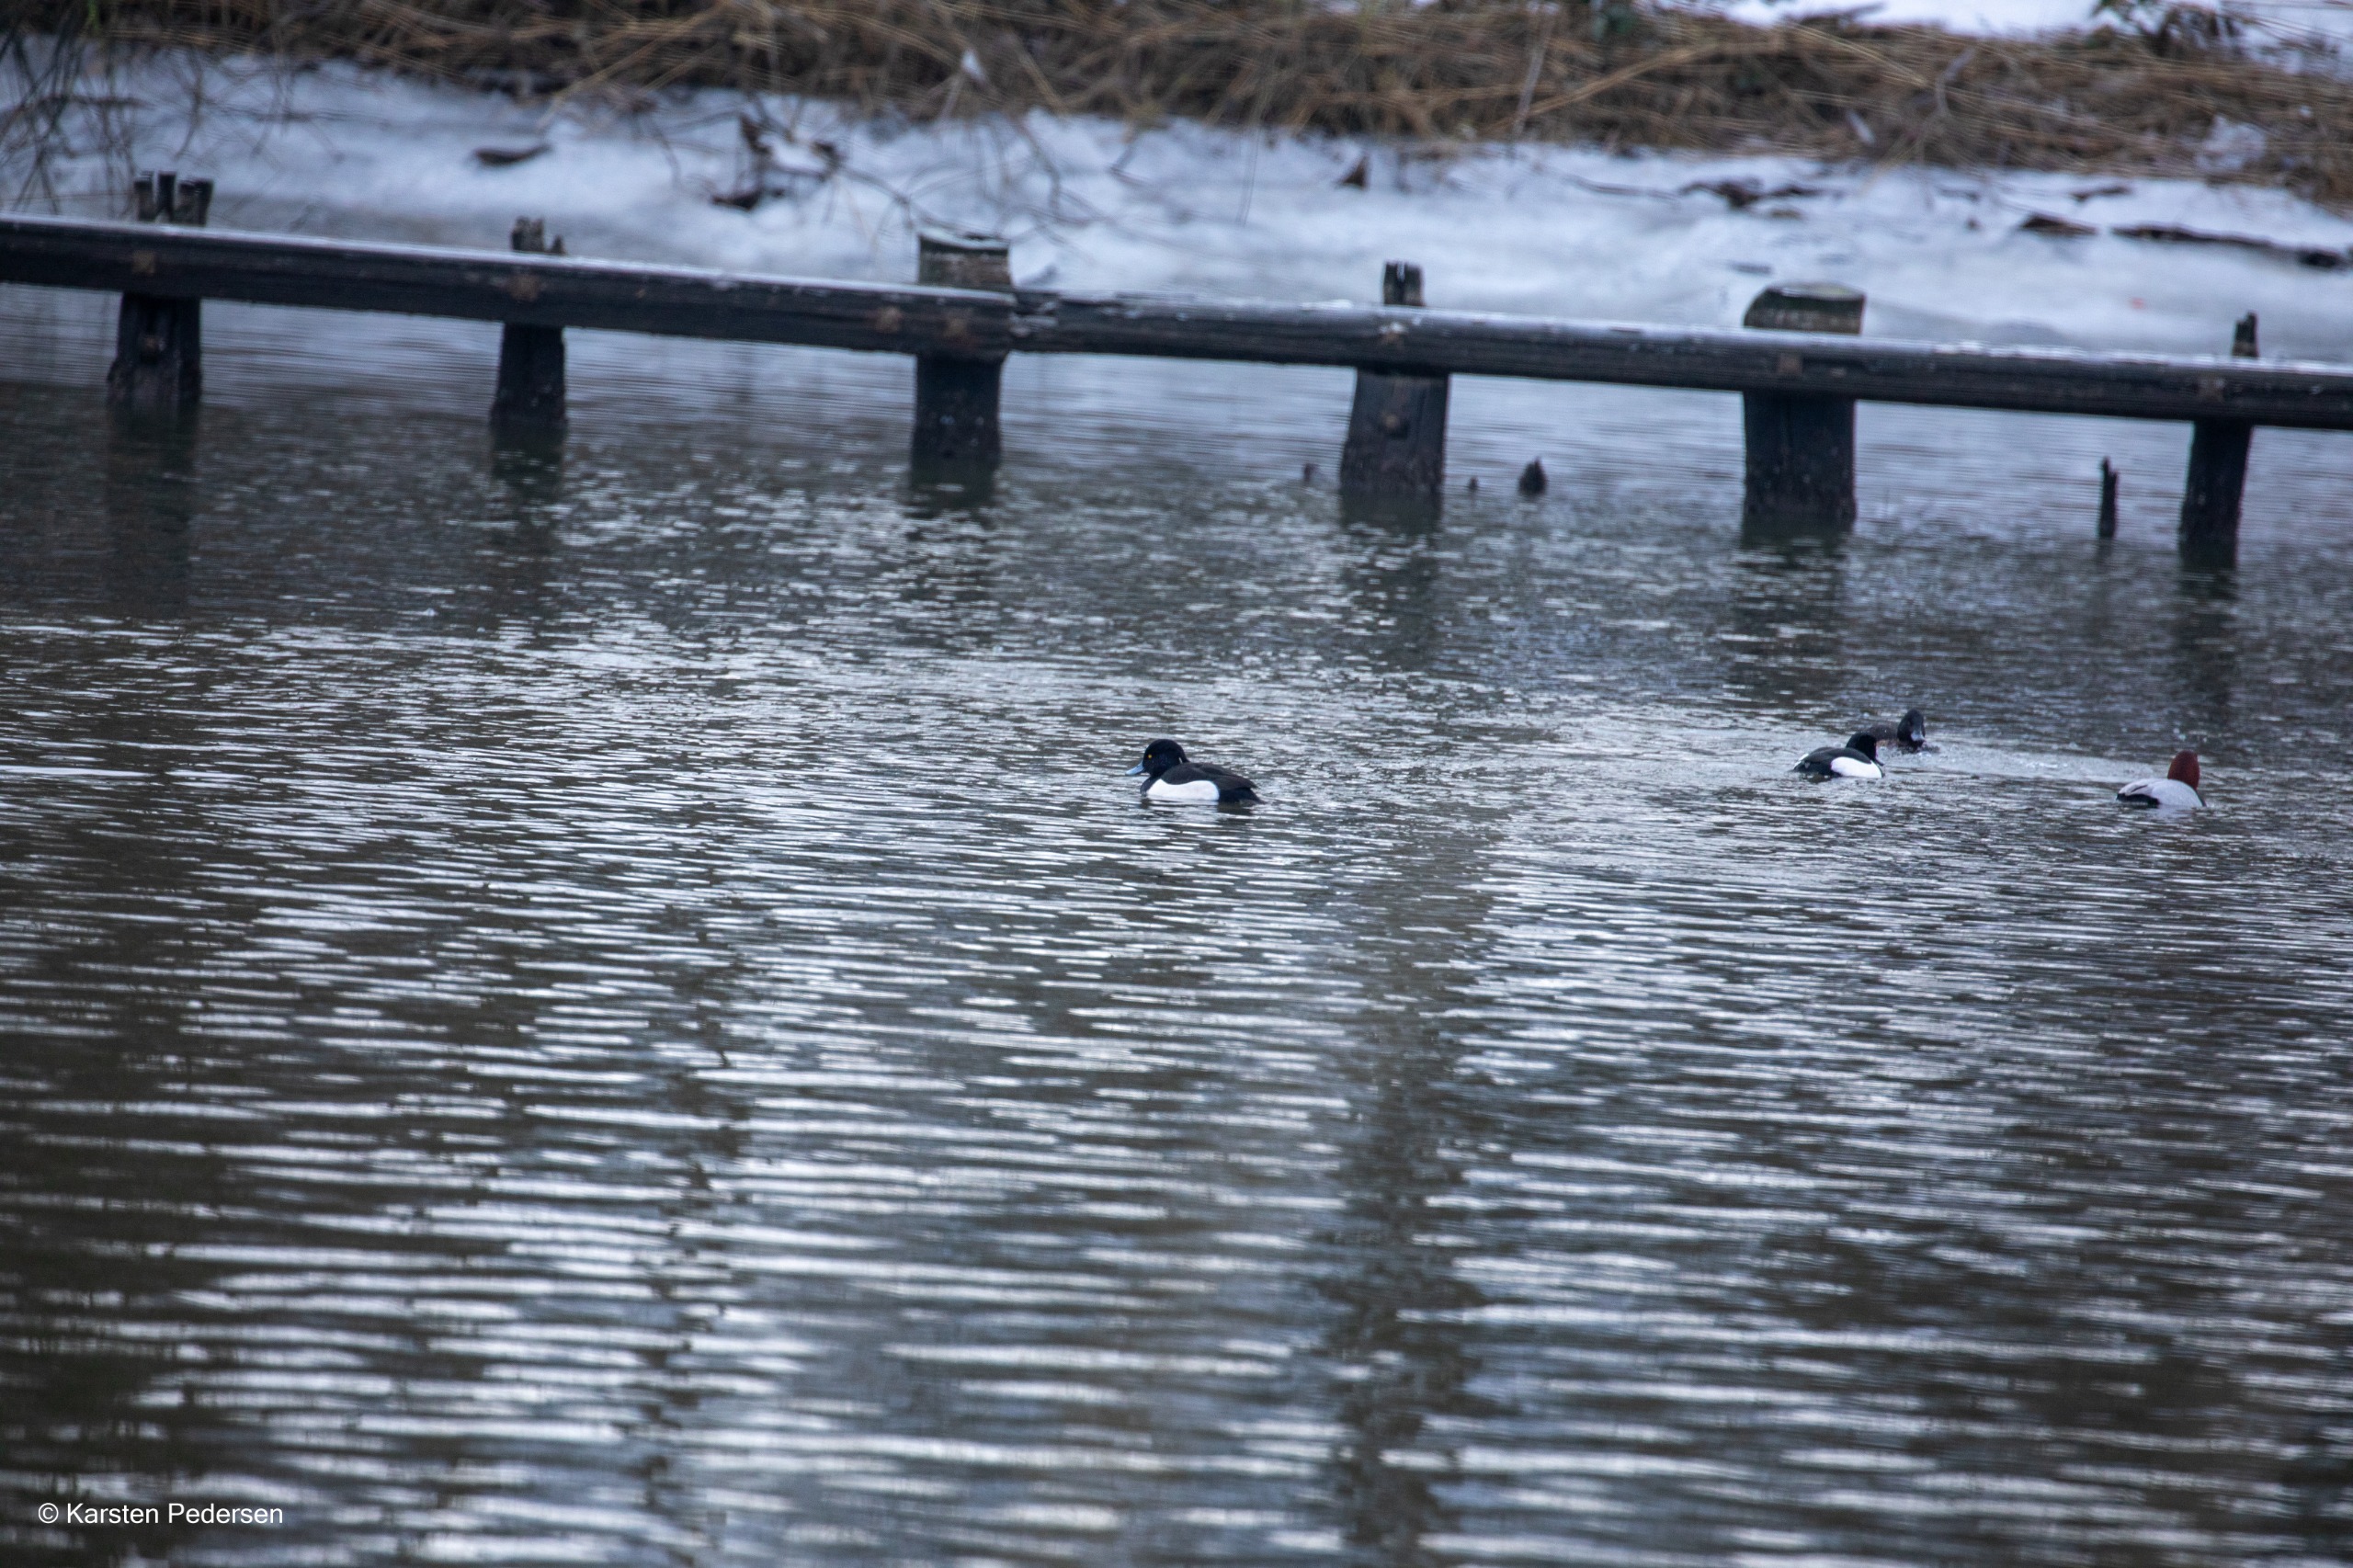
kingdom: Animalia
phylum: Chordata
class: Aves
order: Anseriformes
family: Anatidae
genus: Aythya
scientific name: Aythya fuligula
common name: Troldand
